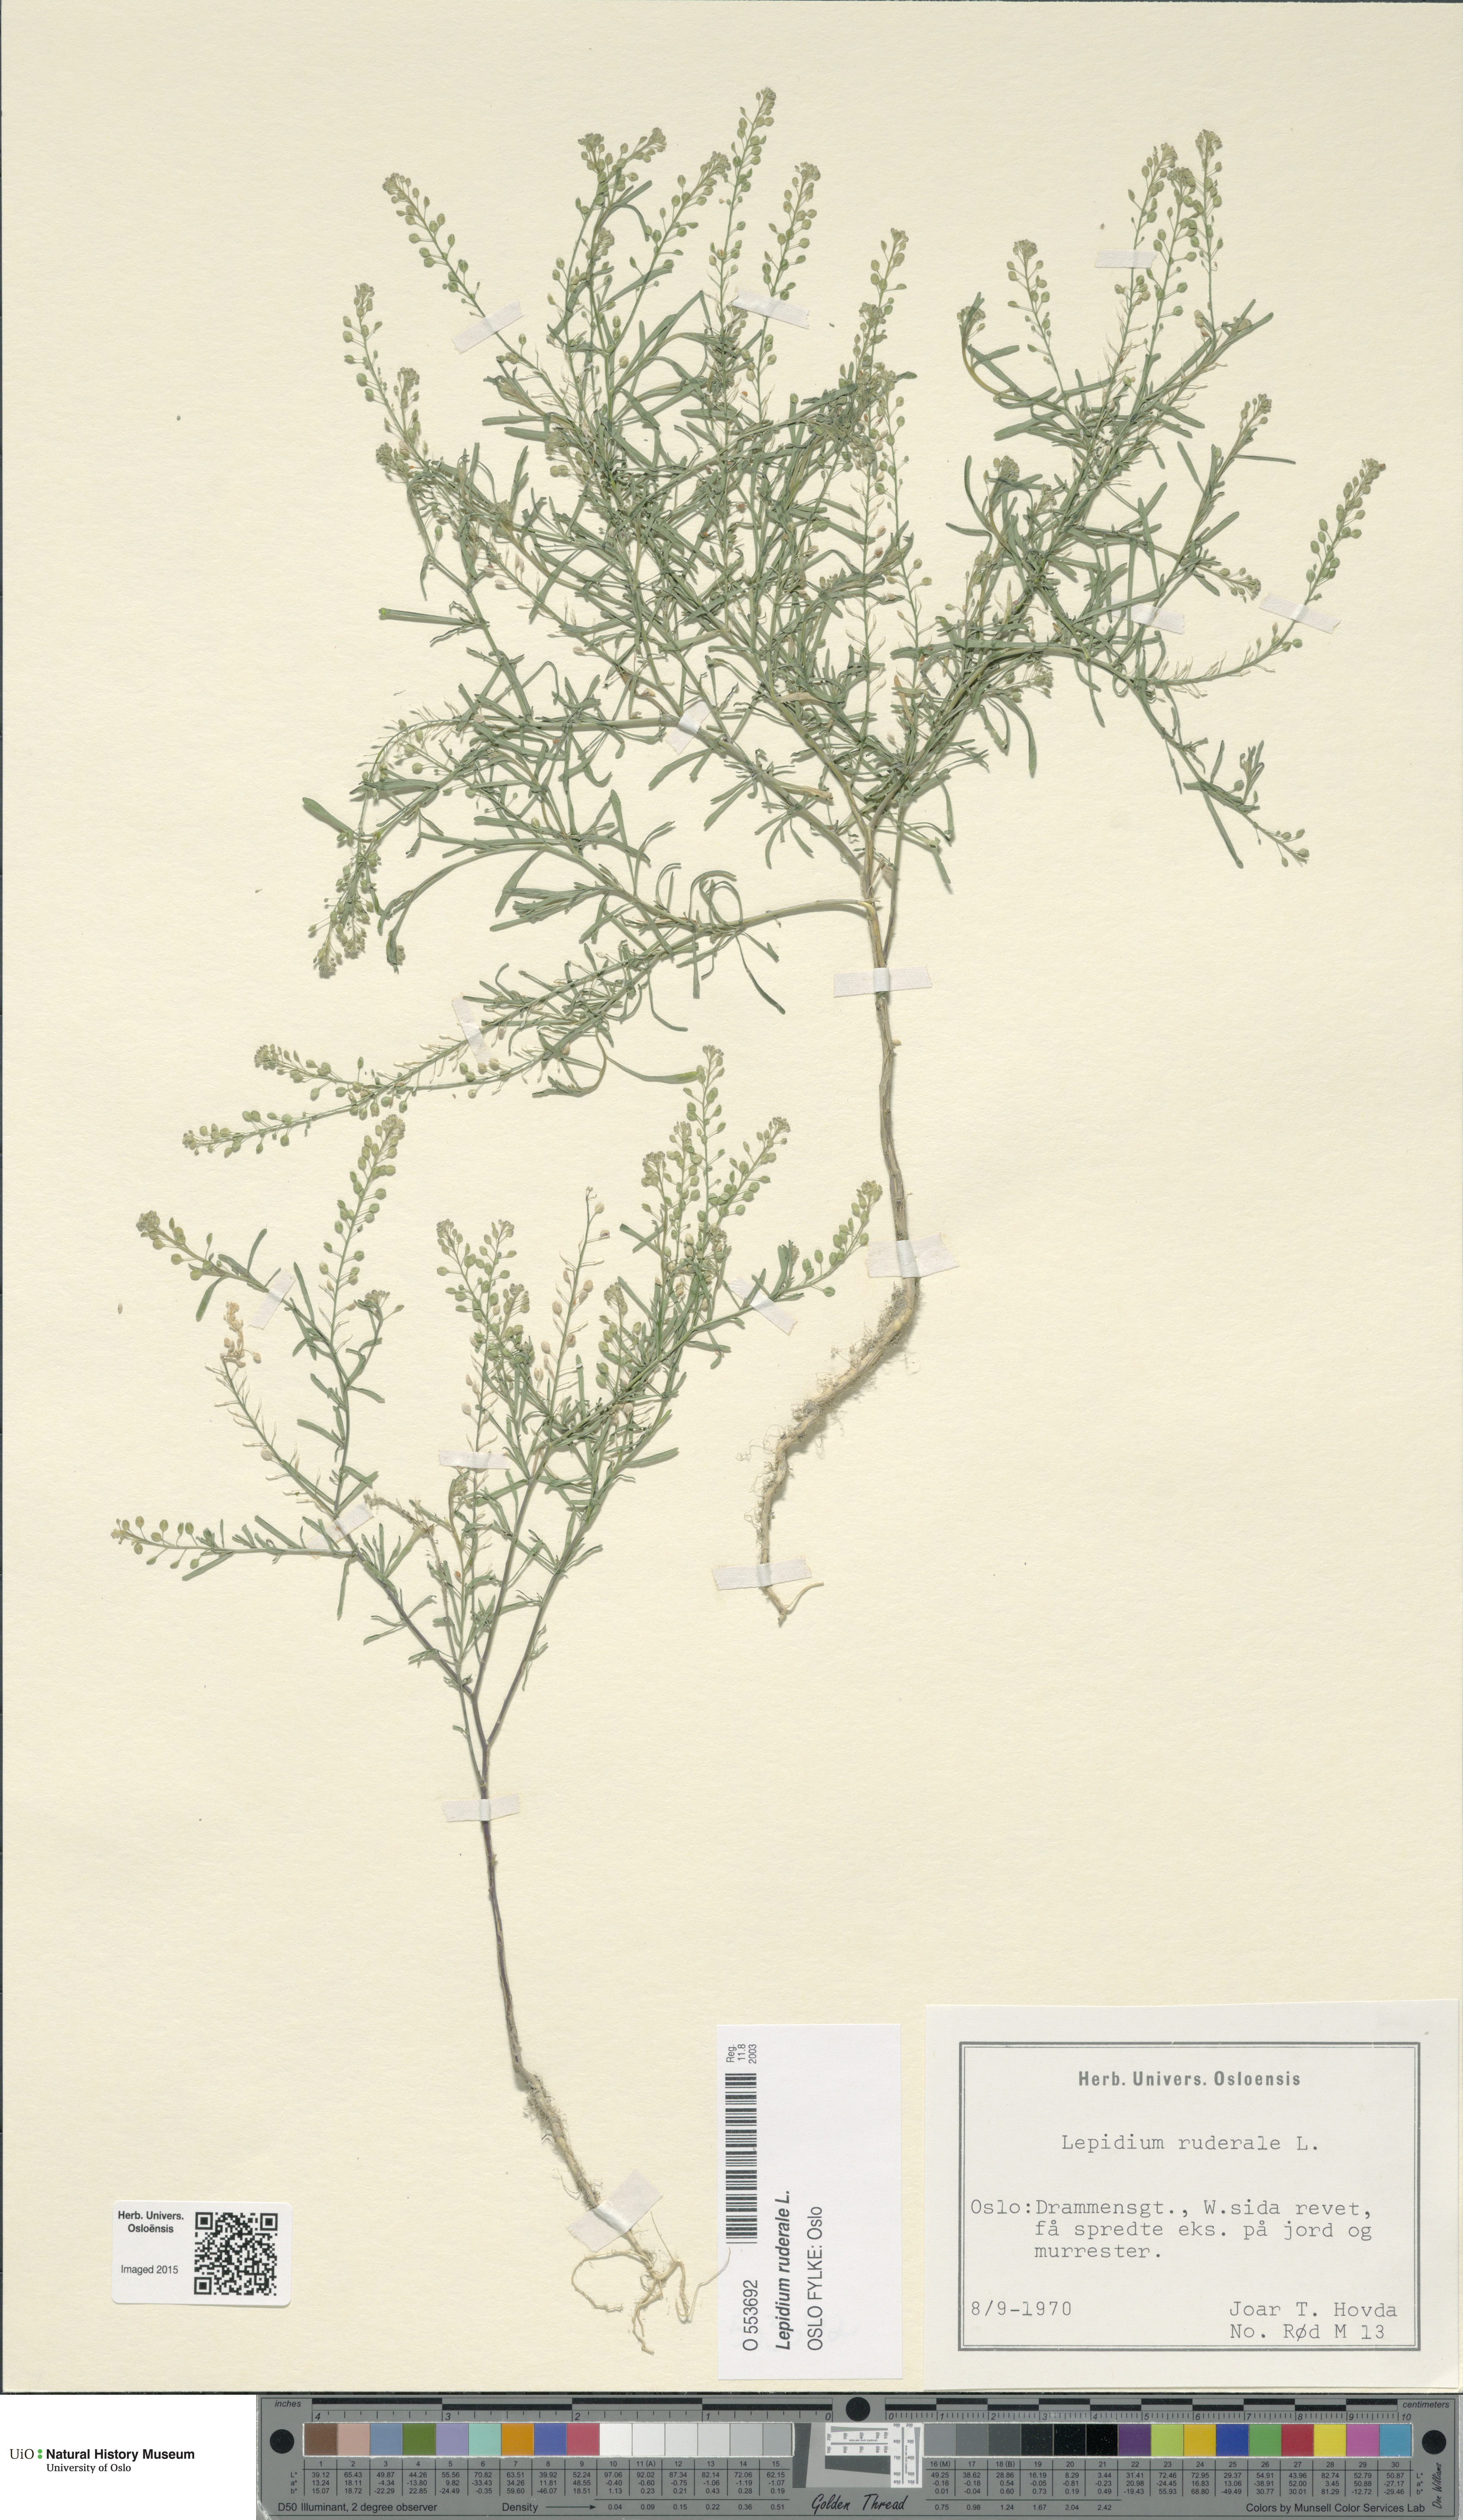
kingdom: Plantae
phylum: Tracheophyta
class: Magnoliopsida
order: Brassicales
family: Brassicaceae
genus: Lepidium
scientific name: Lepidium ruderale
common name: Narrow-leaved pepperwort
